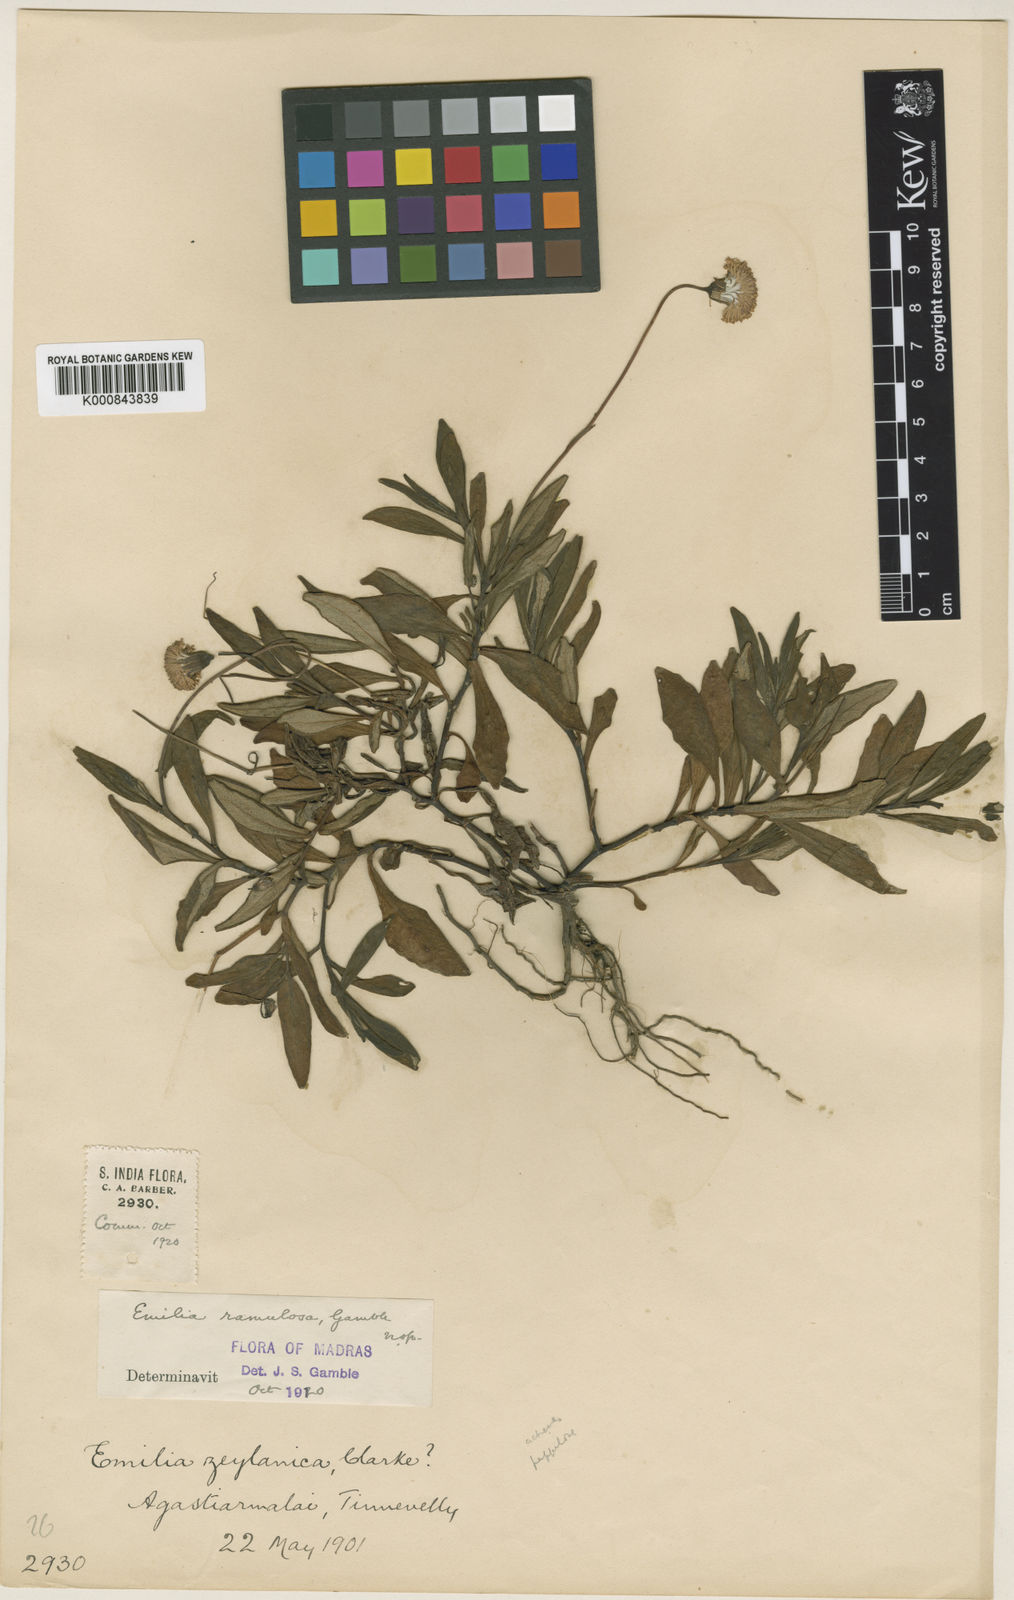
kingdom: Plantae
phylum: Tracheophyta
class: Magnoliopsida
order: Asterales
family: Asteraceae
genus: Emilia
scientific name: Emilia ramulosa
